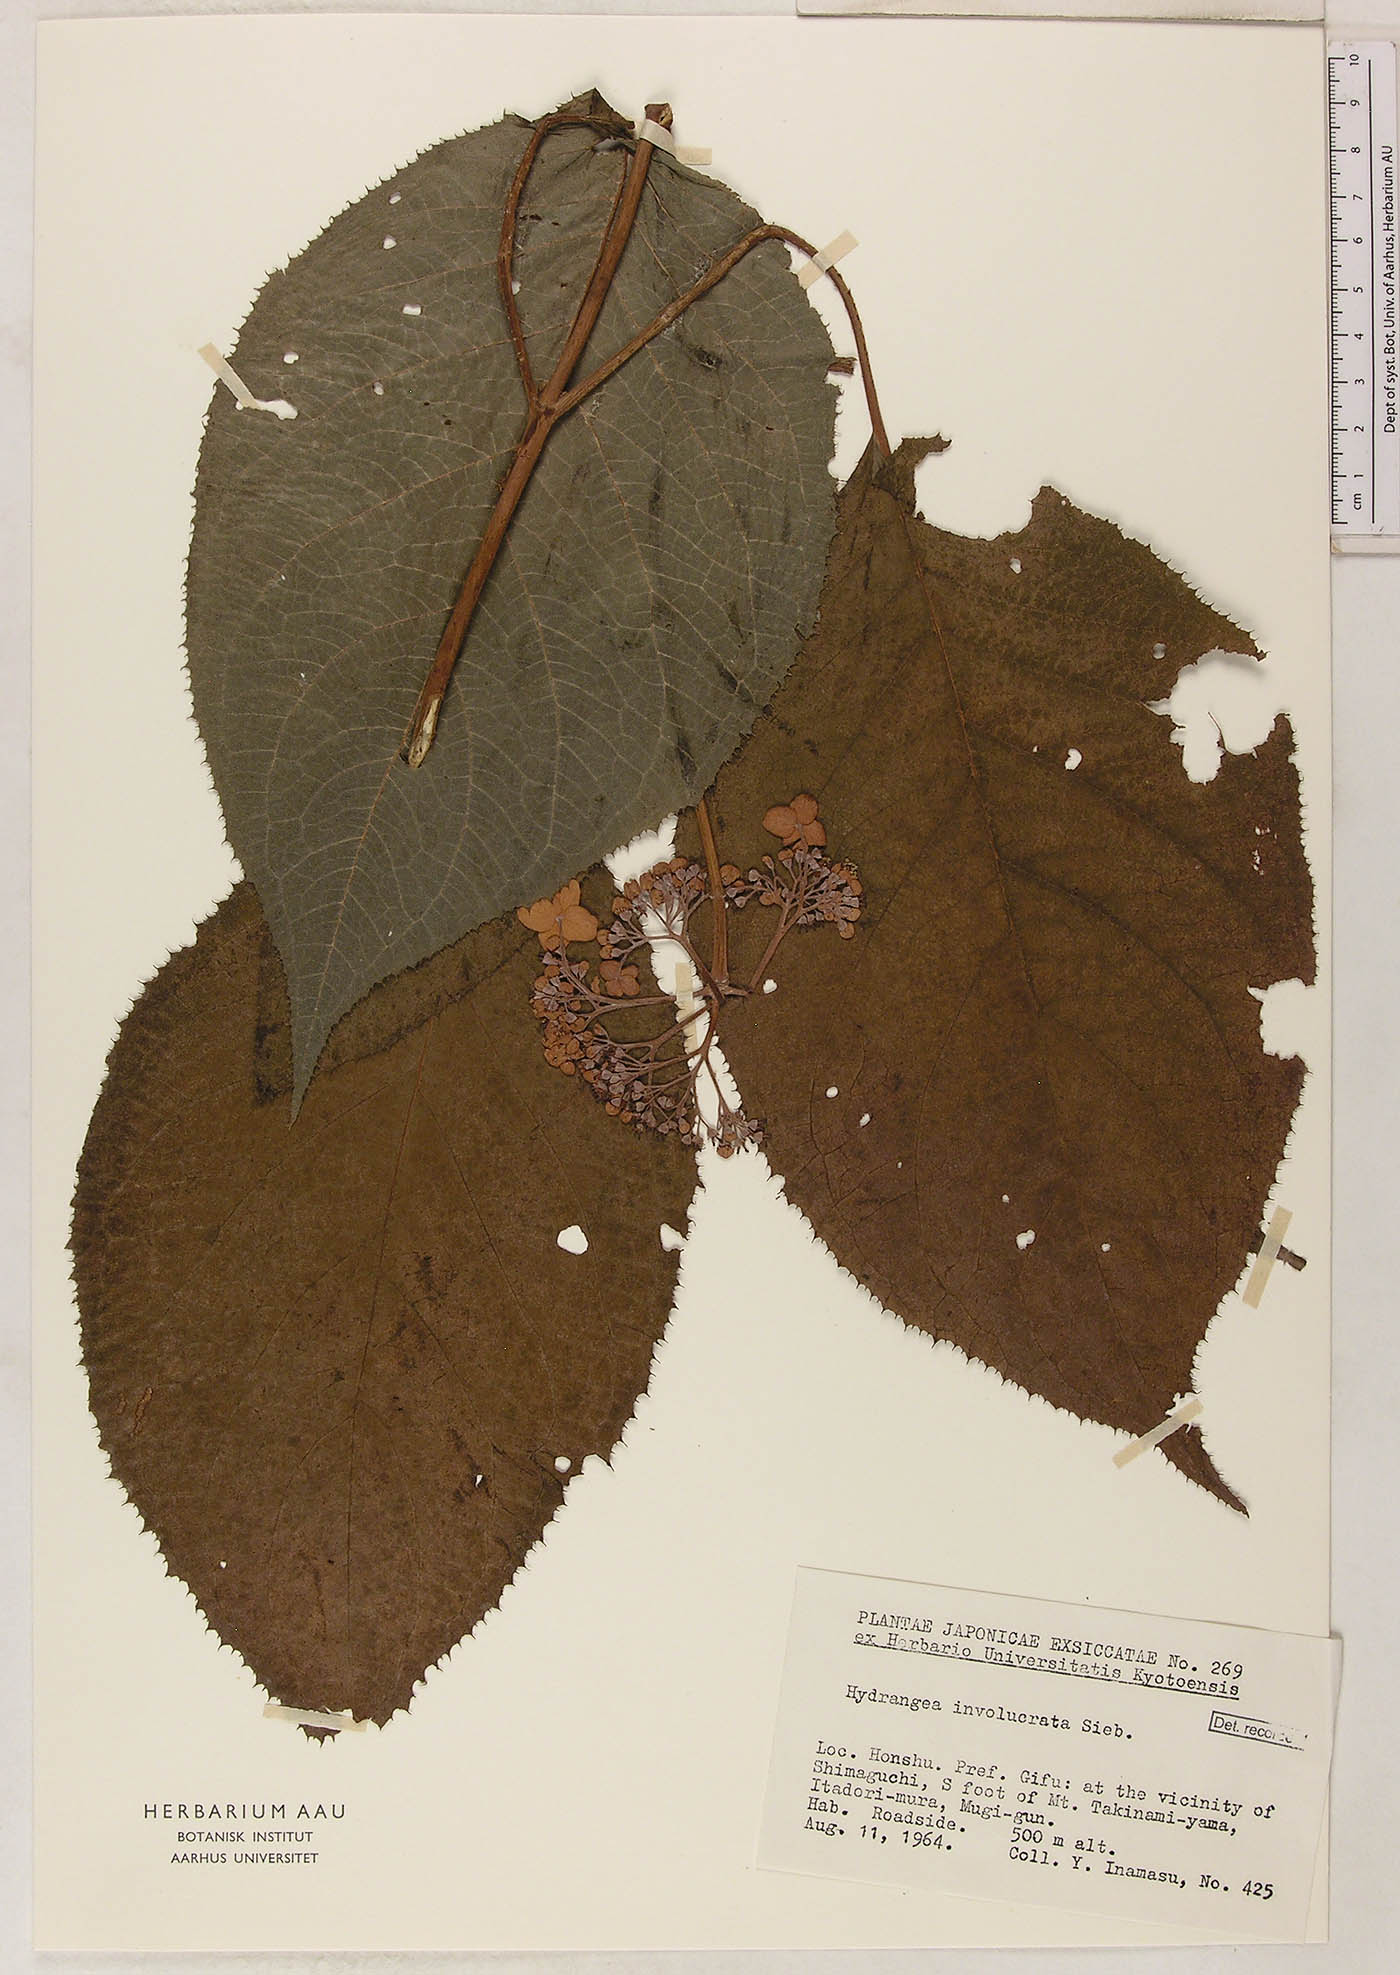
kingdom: Plantae
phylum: Tracheophyta
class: Magnoliopsida
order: Cornales
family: Hydrangeaceae
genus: Hydrangea
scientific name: Hydrangea involucrata
